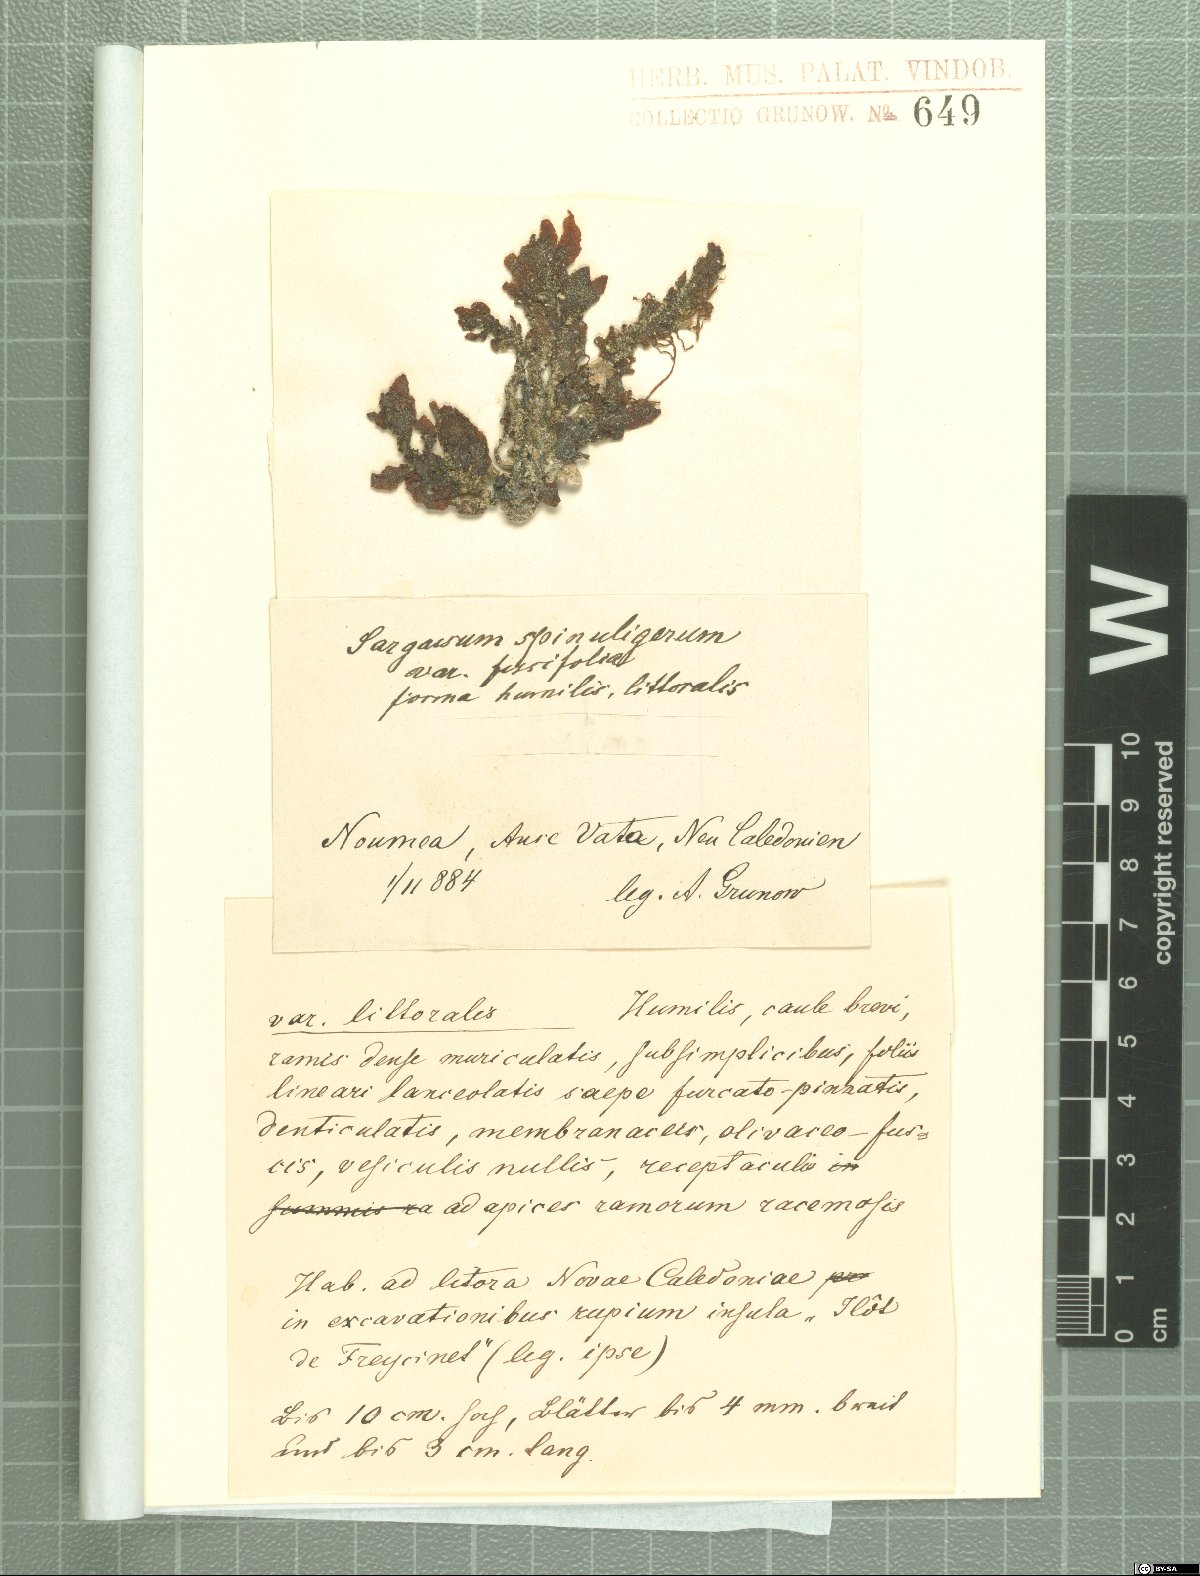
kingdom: Chromista
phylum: Ochrophyta
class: Phaeophyceae
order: Fucales
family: Sargassaceae
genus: Sargassum
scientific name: Sargassum
